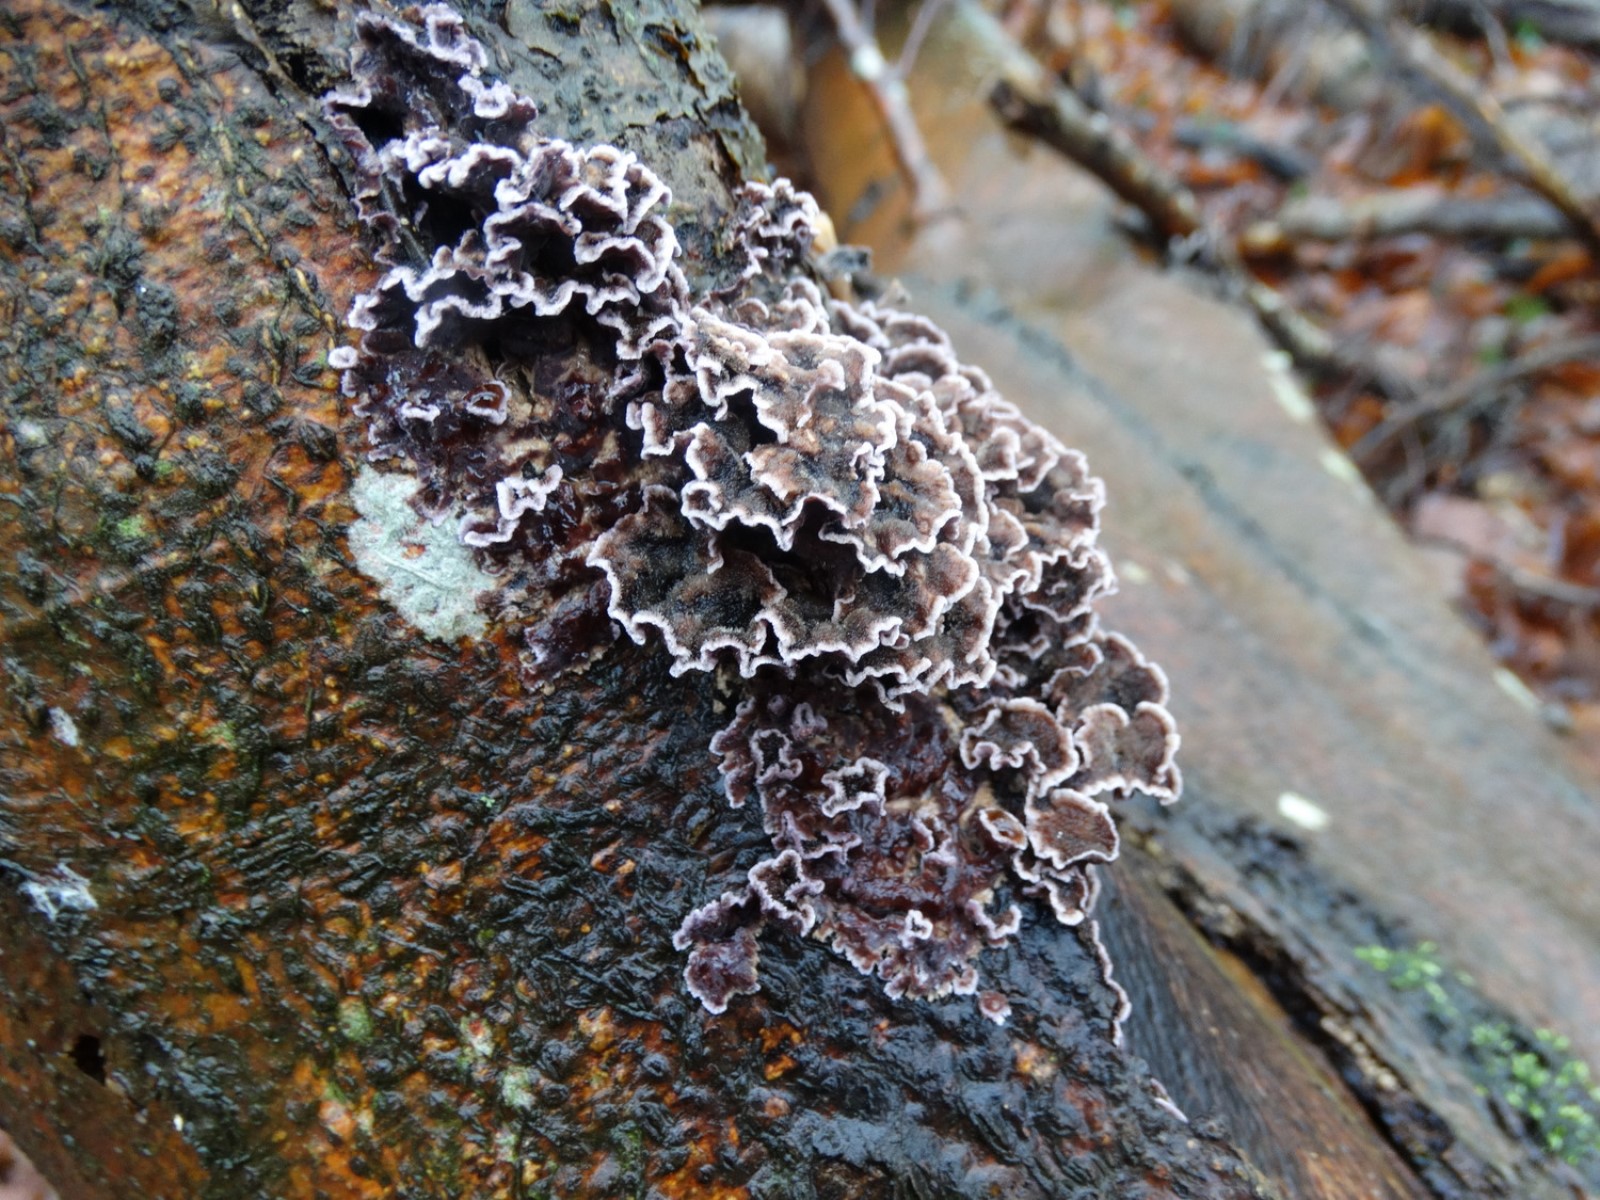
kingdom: Fungi
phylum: Basidiomycota
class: Agaricomycetes
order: Agaricales
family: Cyphellaceae
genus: Chondrostereum
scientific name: Chondrostereum purpureum
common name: purpurlædersvamp
